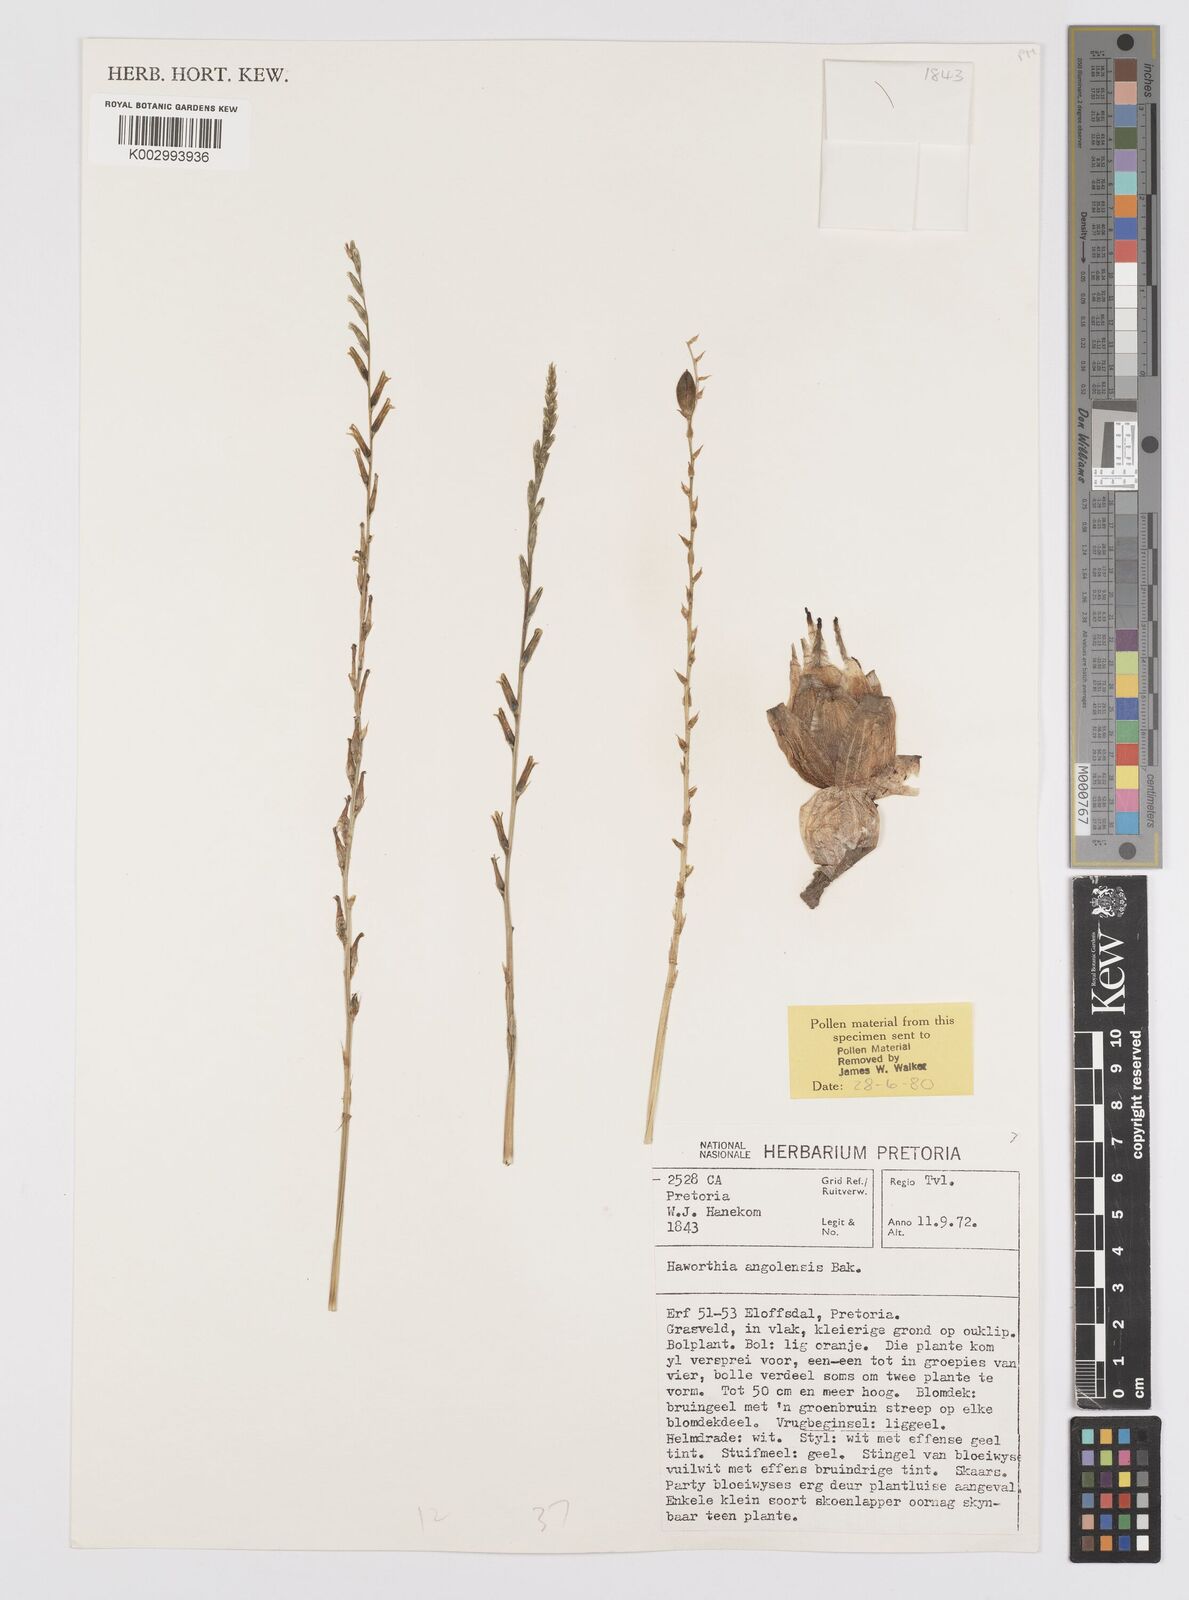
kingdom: Plantae
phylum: Tracheophyta
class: Liliopsida
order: Asparagales
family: Asphodelaceae
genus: Aloe
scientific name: Aloe welwitschii
